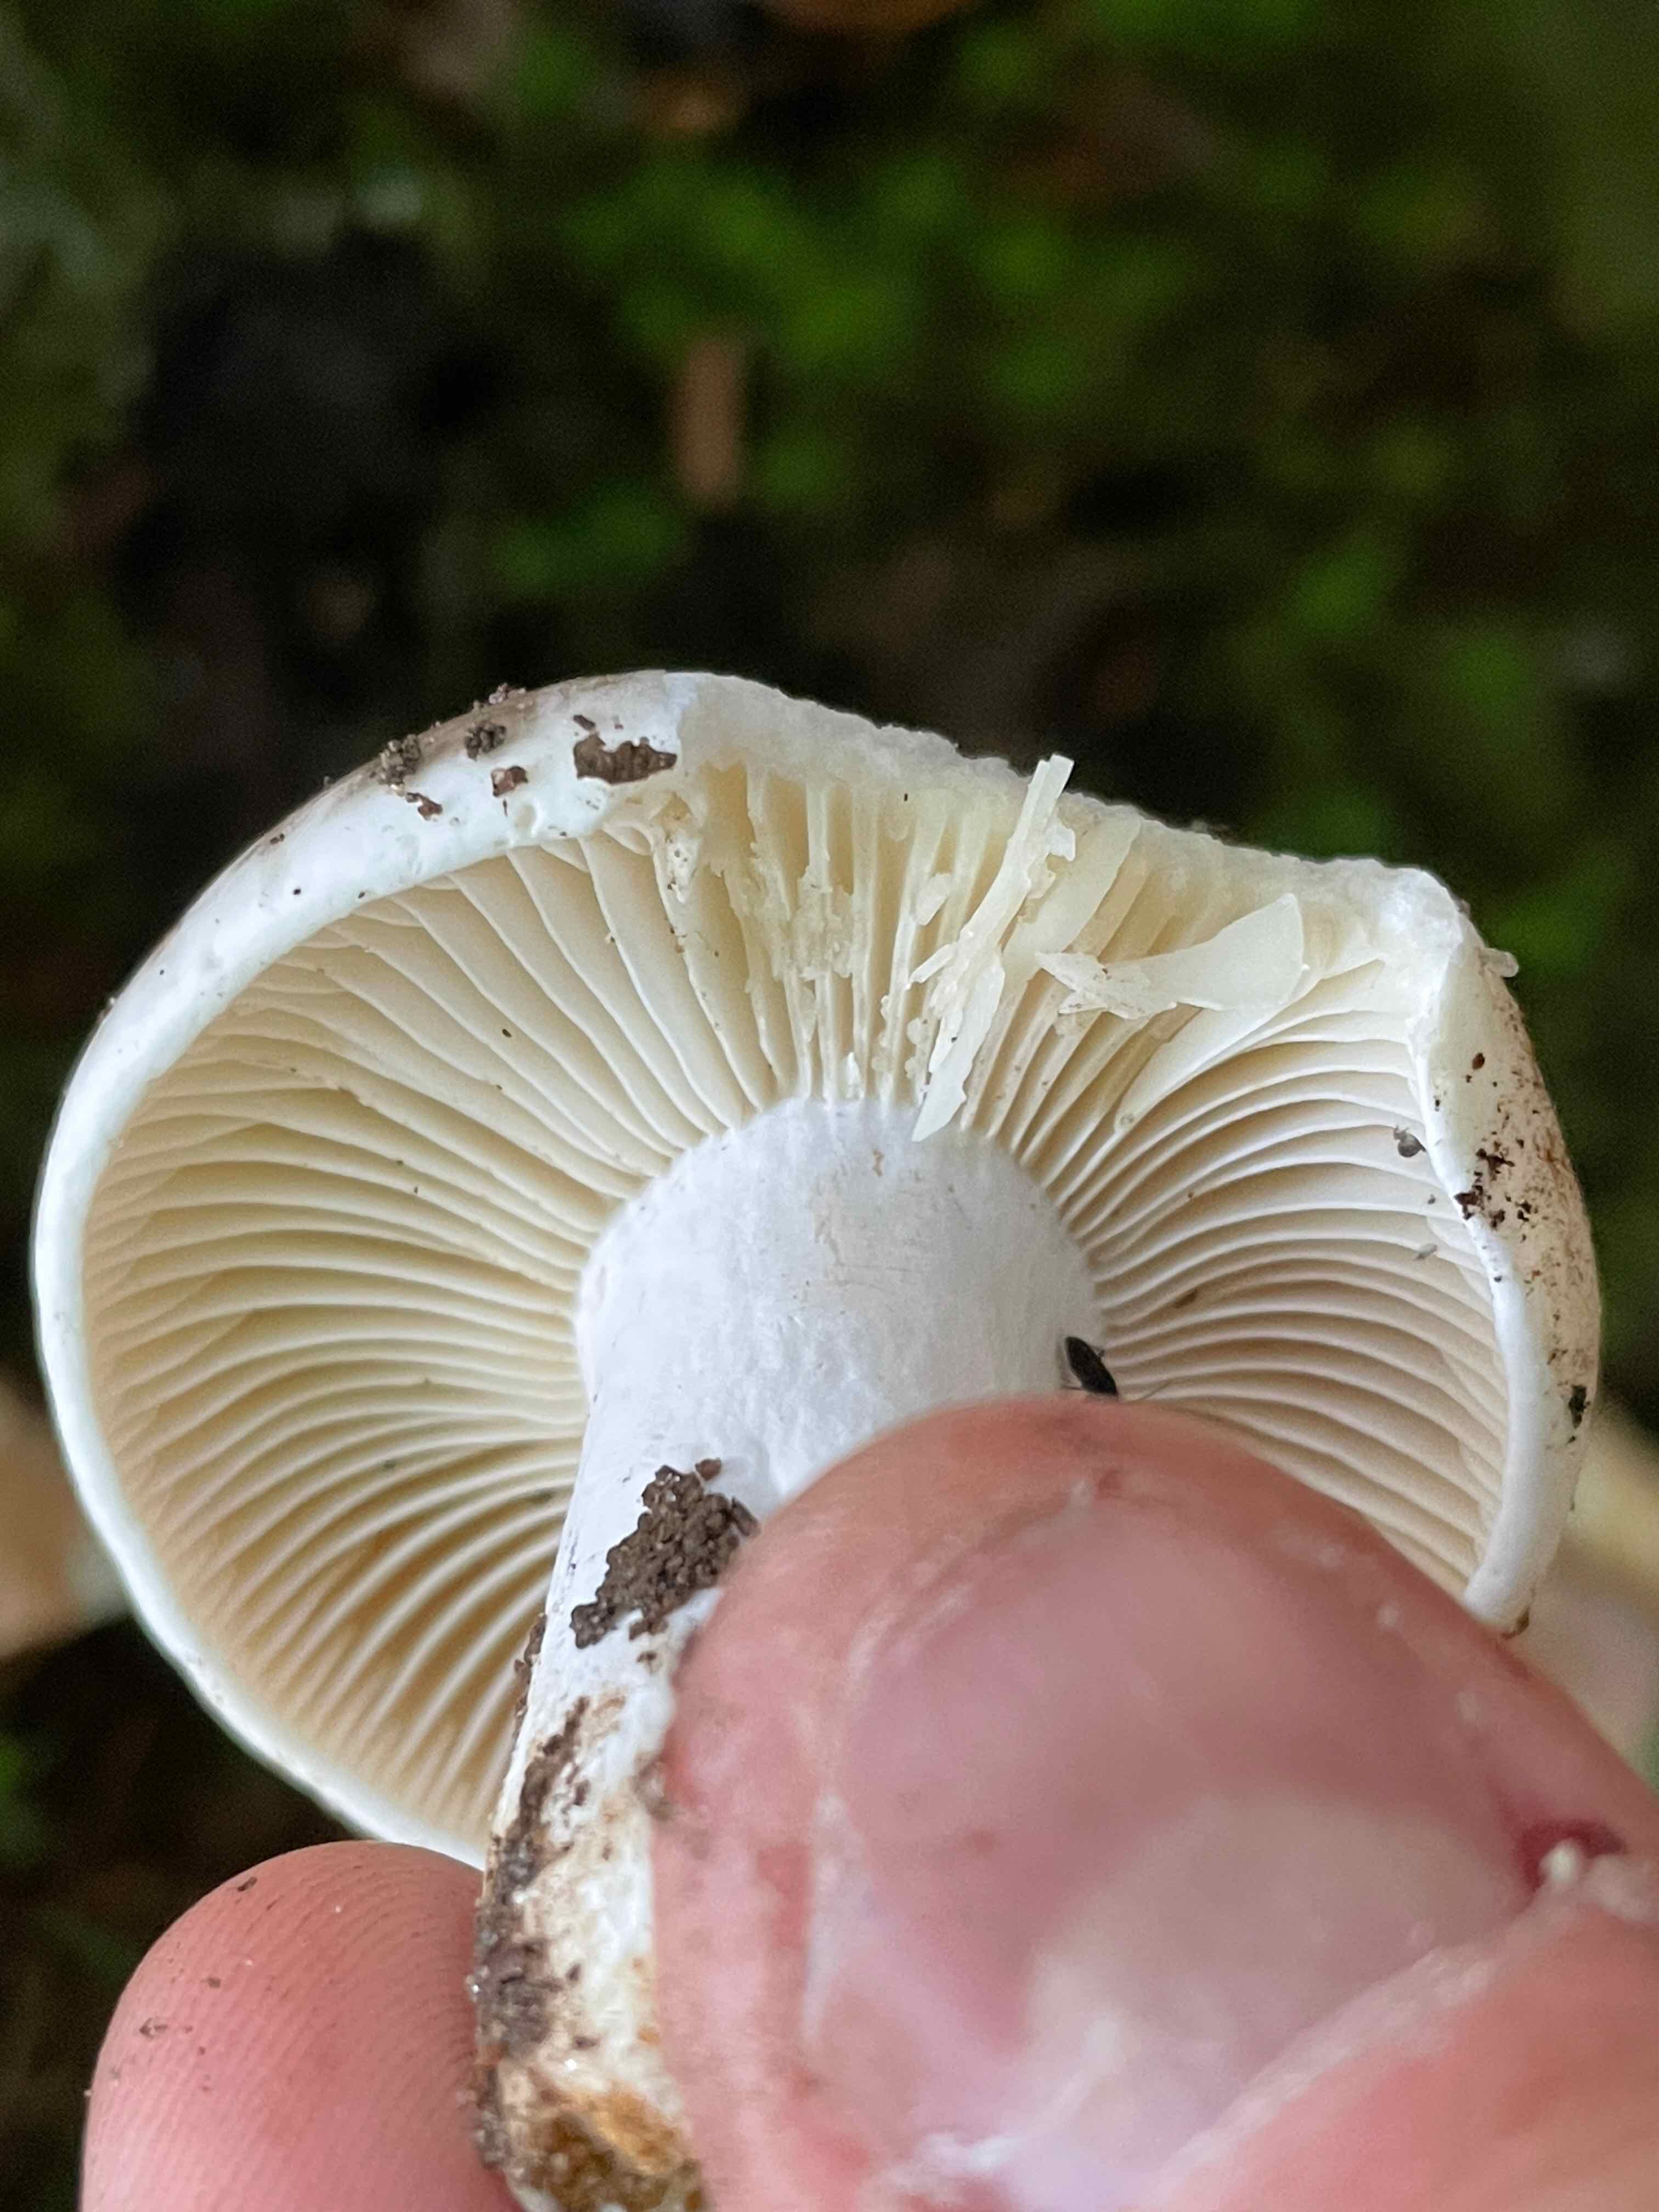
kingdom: Fungi
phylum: Basidiomycota
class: Agaricomycetes
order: Russulales
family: Russulaceae
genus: Russula
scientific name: Russula adusta
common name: sværtende skørhat
